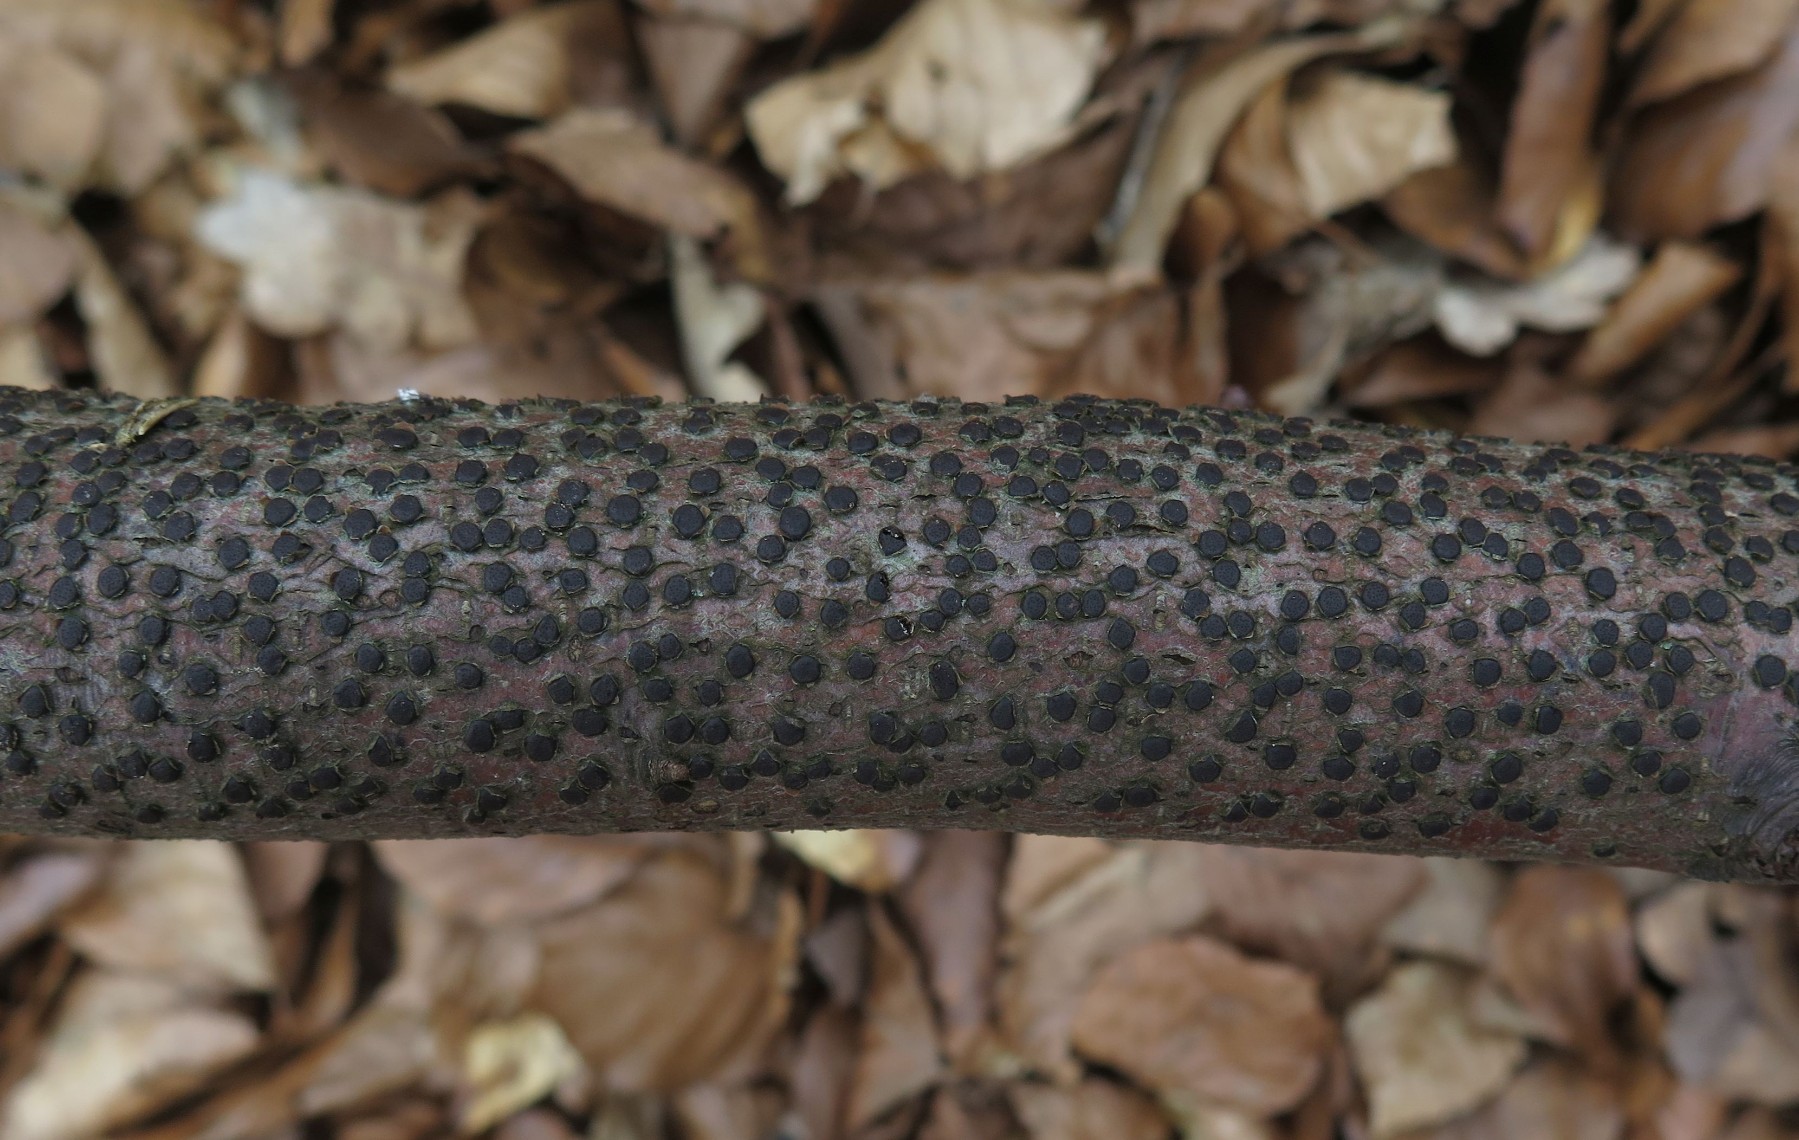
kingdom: Fungi
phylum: Ascomycota
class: Sordariomycetes
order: Xylariales
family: Diatrypaceae
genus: Diatrype
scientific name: Diatrype disciformis
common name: kant-kulskorpe
